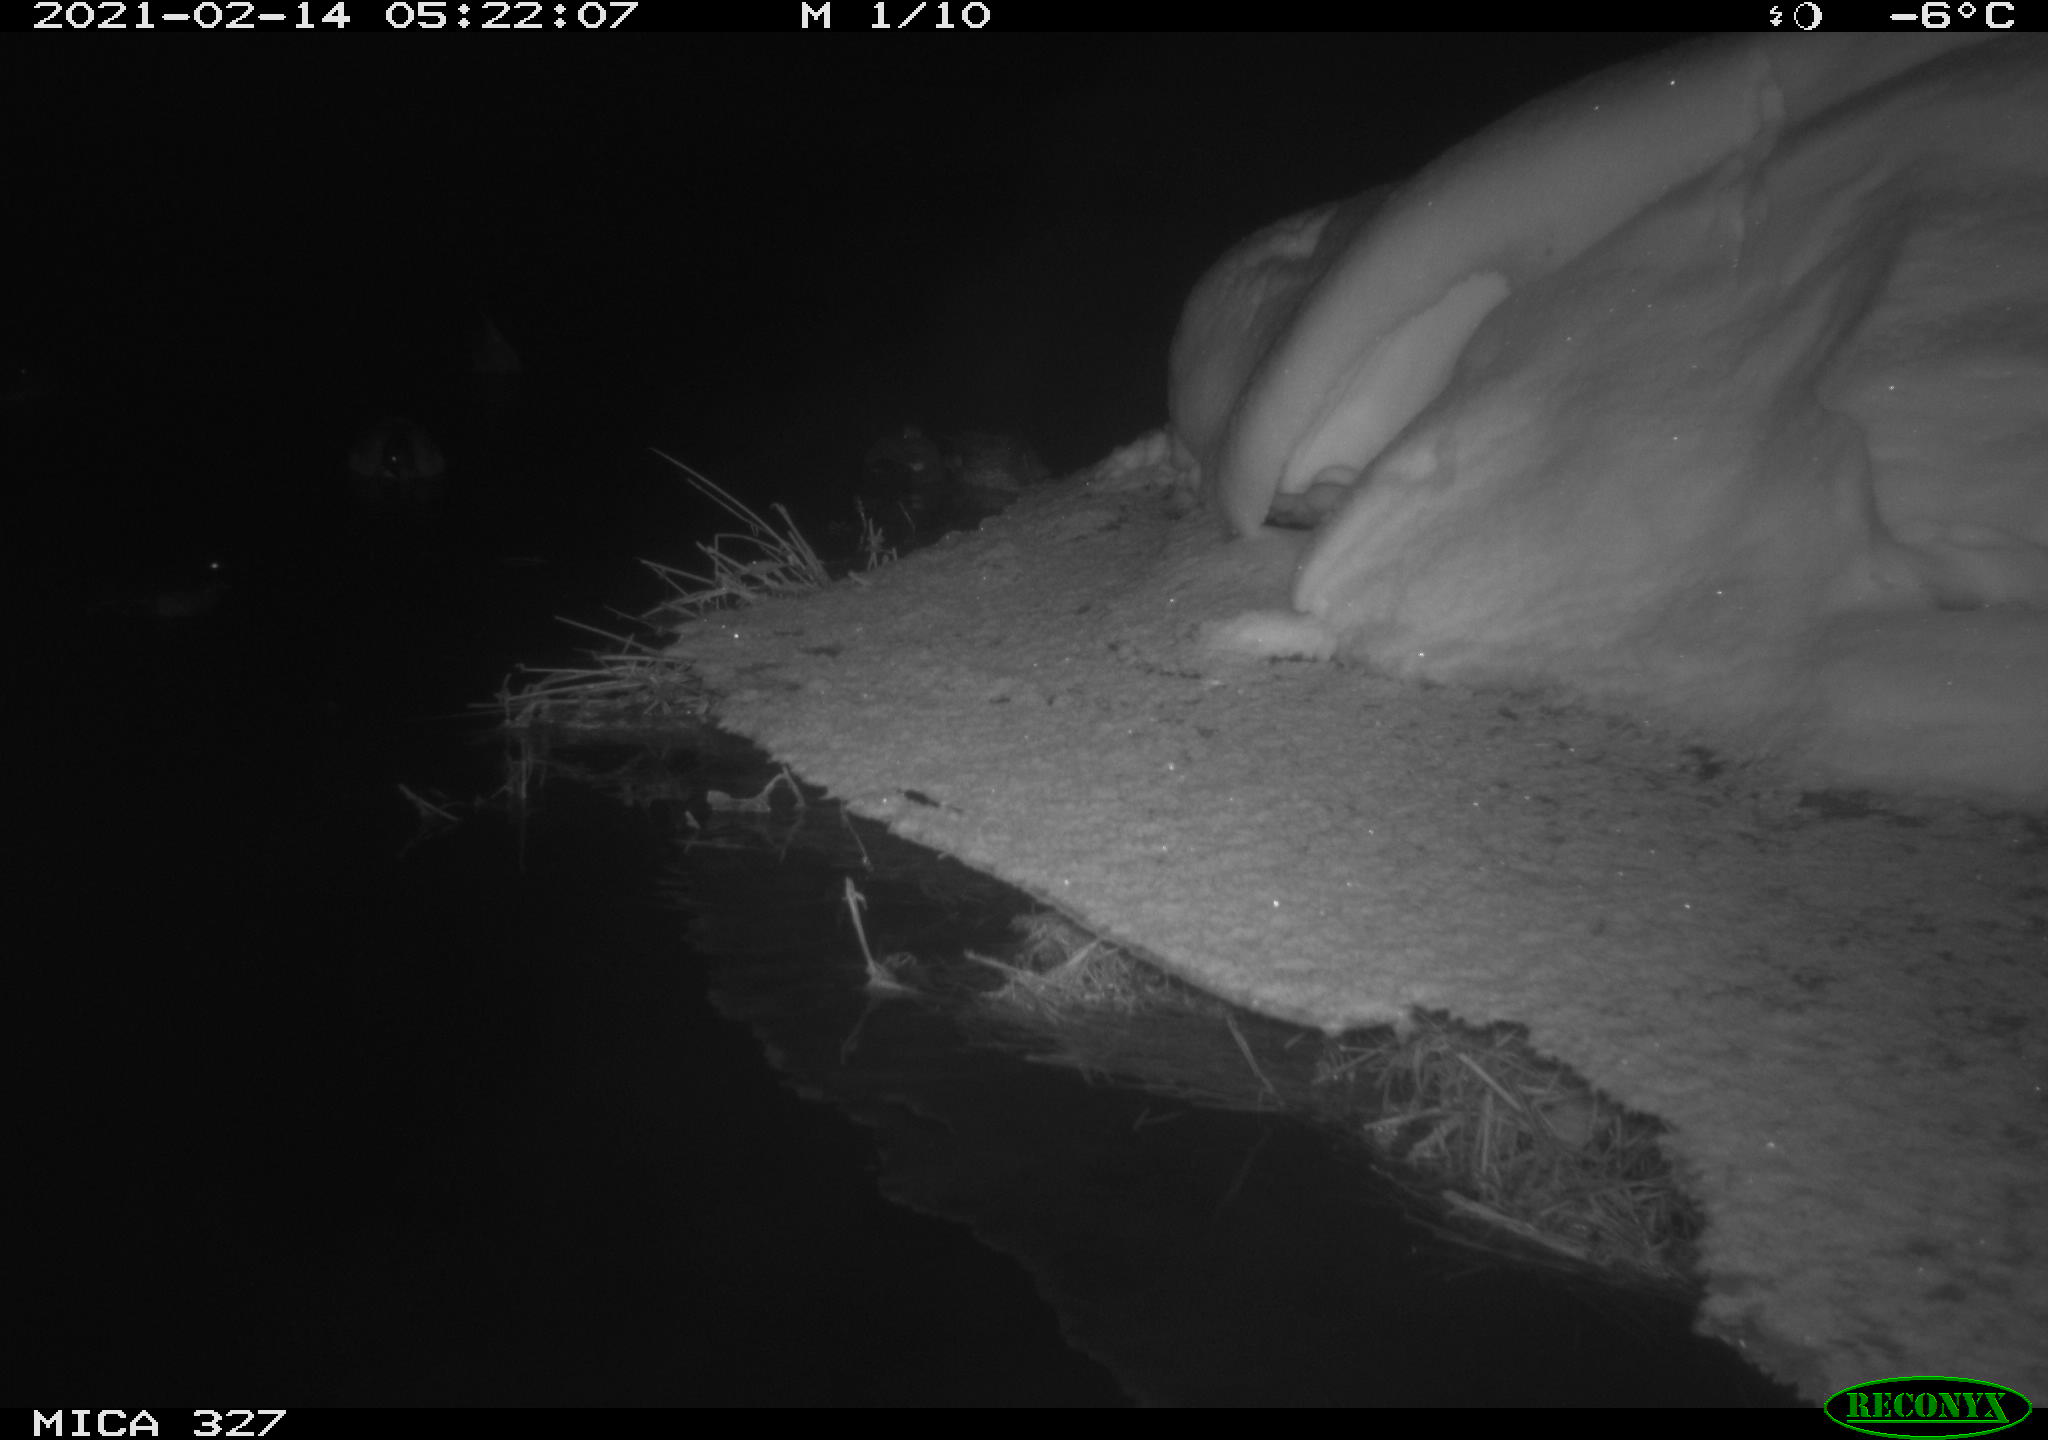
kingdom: Animalia
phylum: Chordata
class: Aves
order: Anseriformes
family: Anatidae
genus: Anas
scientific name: Anas
